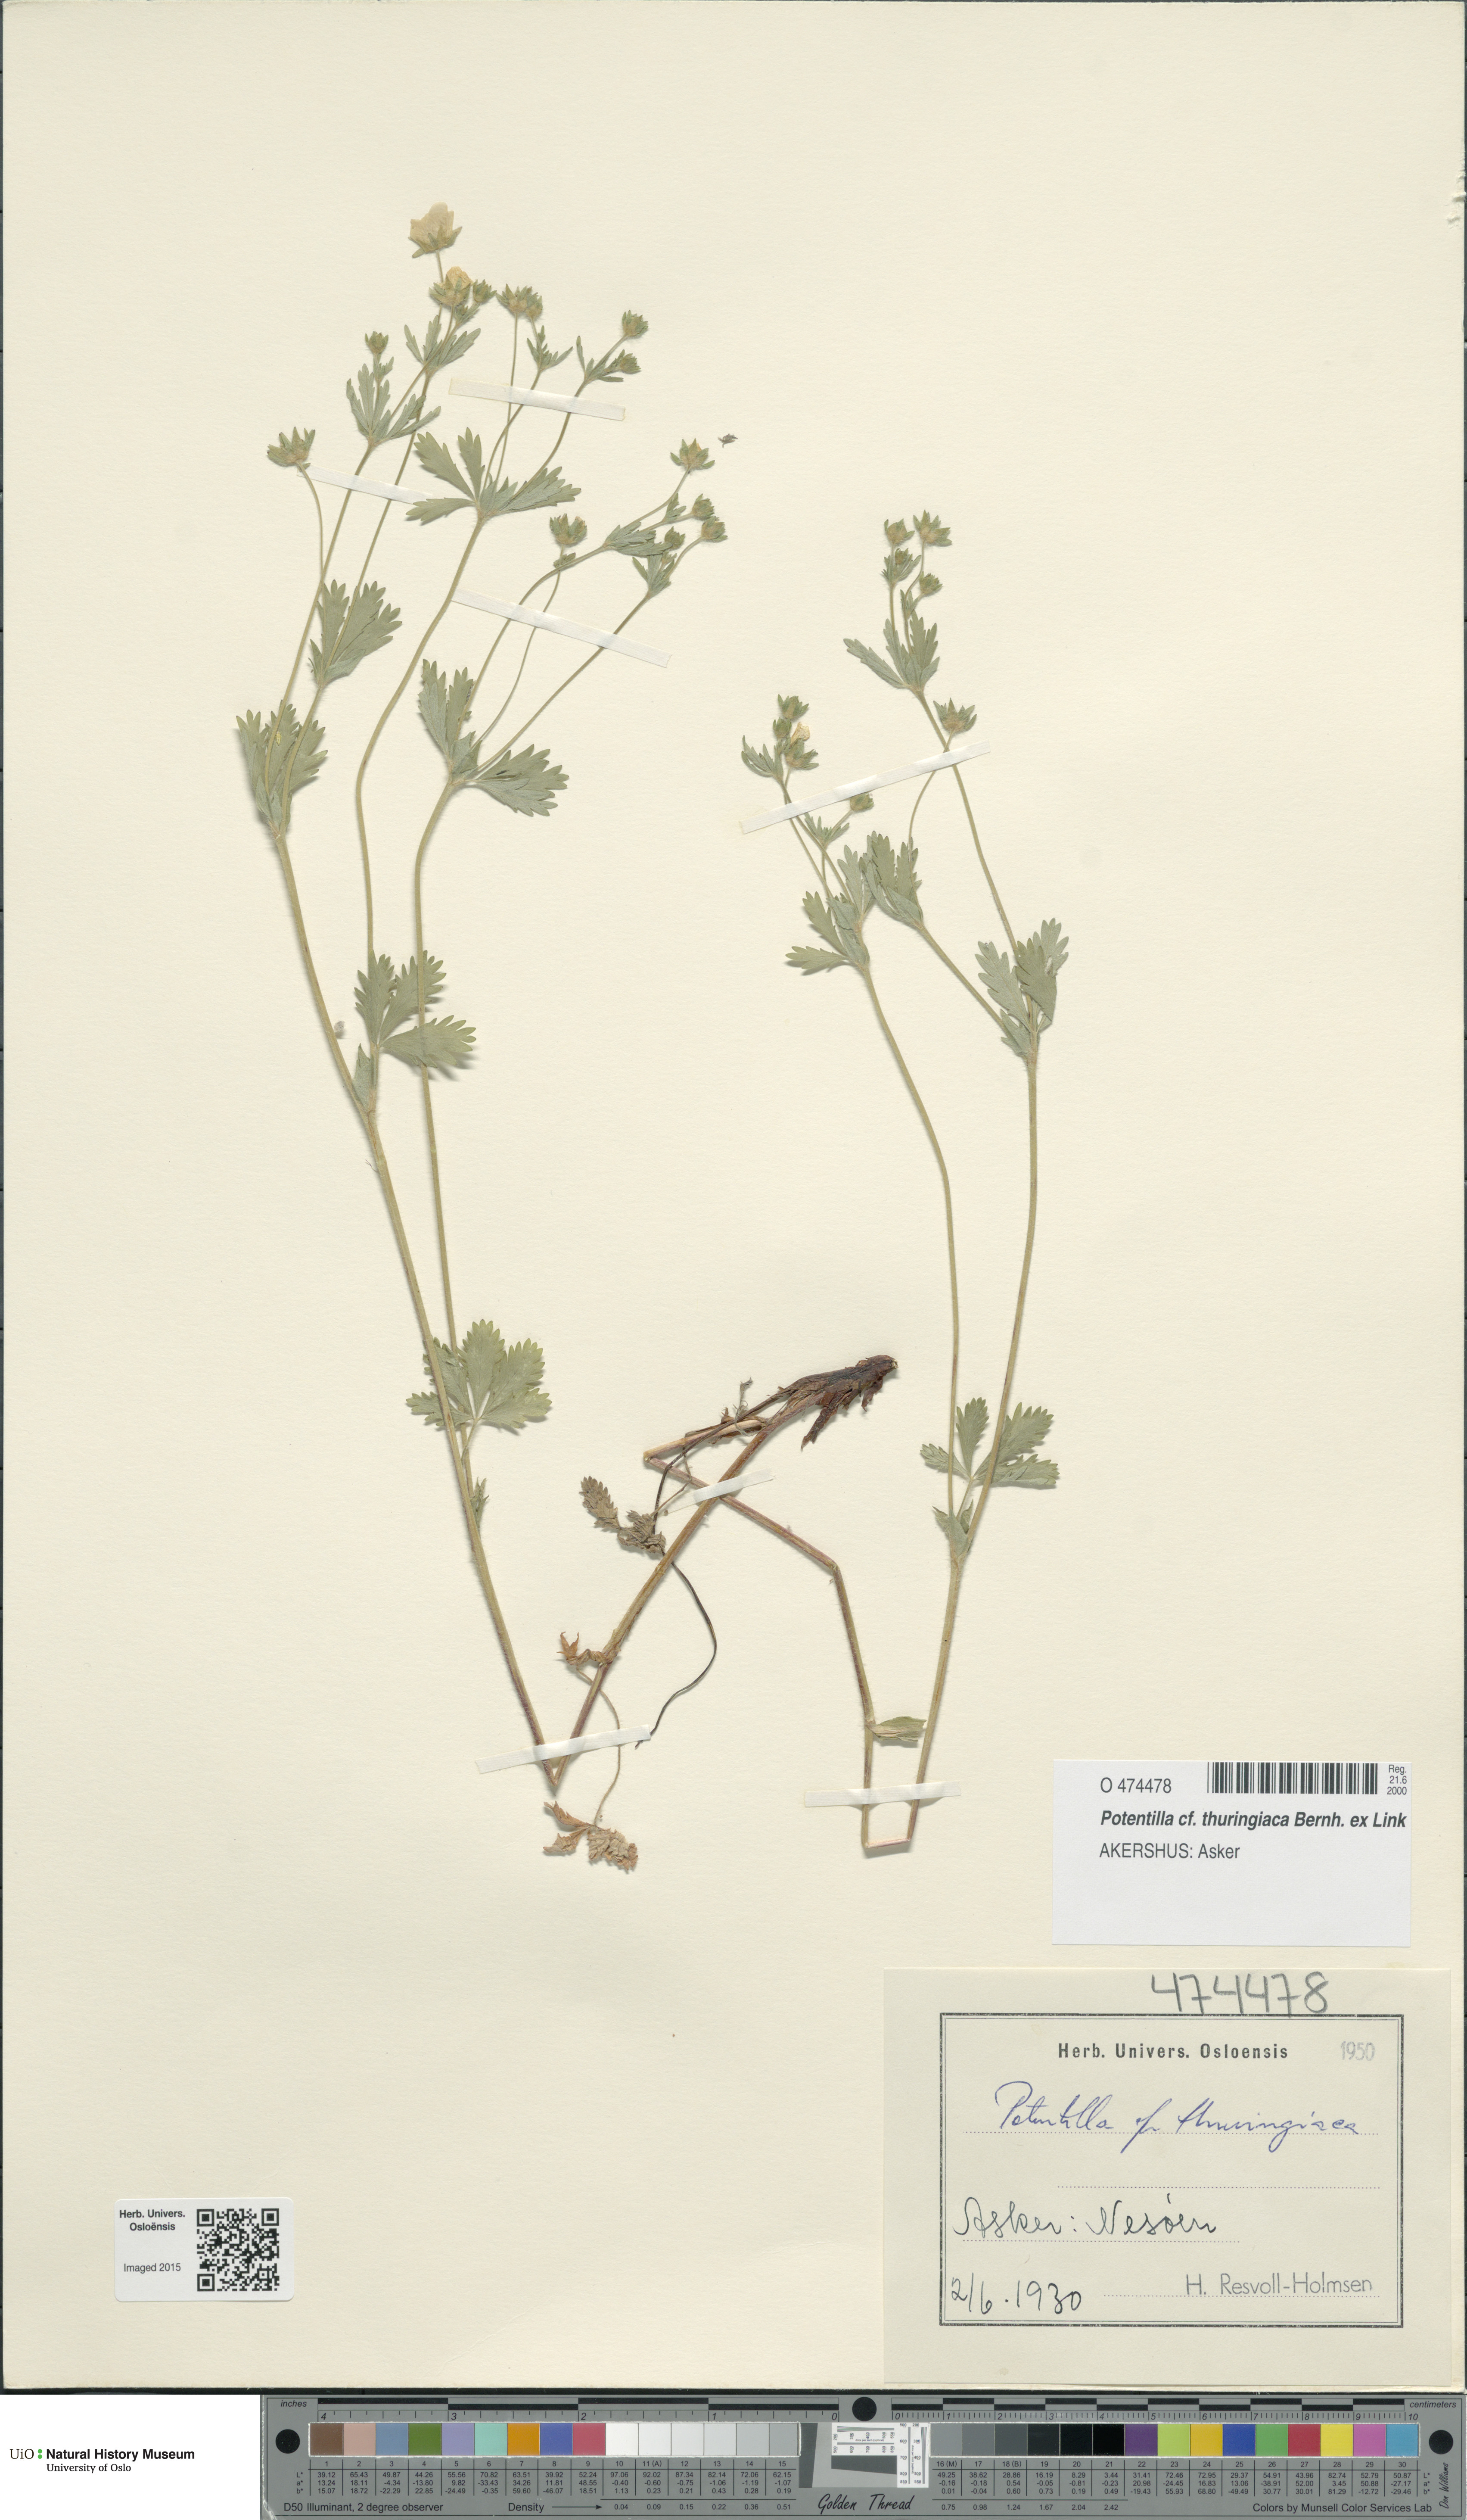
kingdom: Plantae
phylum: Tracheophyta
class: Magnoliopsida
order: Rosales
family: Rosaceae
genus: Potentilla
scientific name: Potentilla thuringiaca
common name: European cinquefoil
